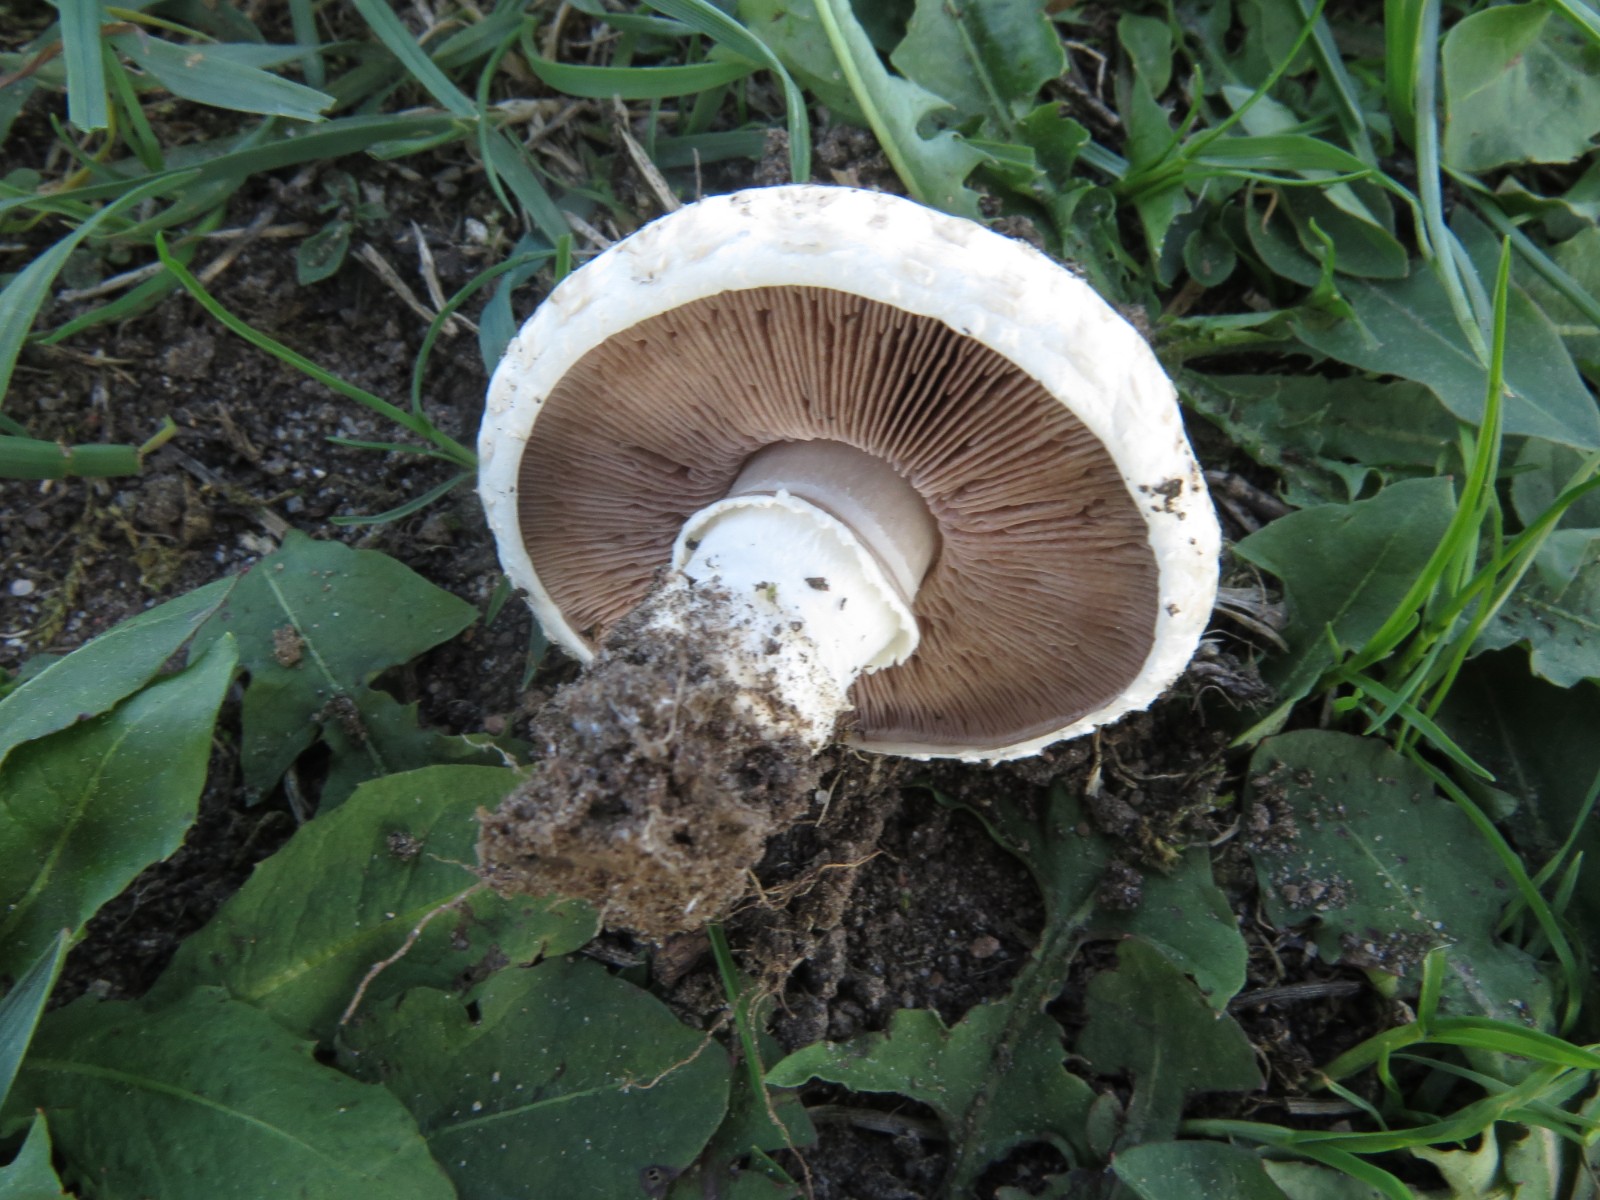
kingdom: Fungi
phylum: Basidiomycota
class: Agaricomycetes
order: Agaricales
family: Agaricaceae
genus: Agaricus
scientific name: Agaricus litoralis
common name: kyst-champignon
